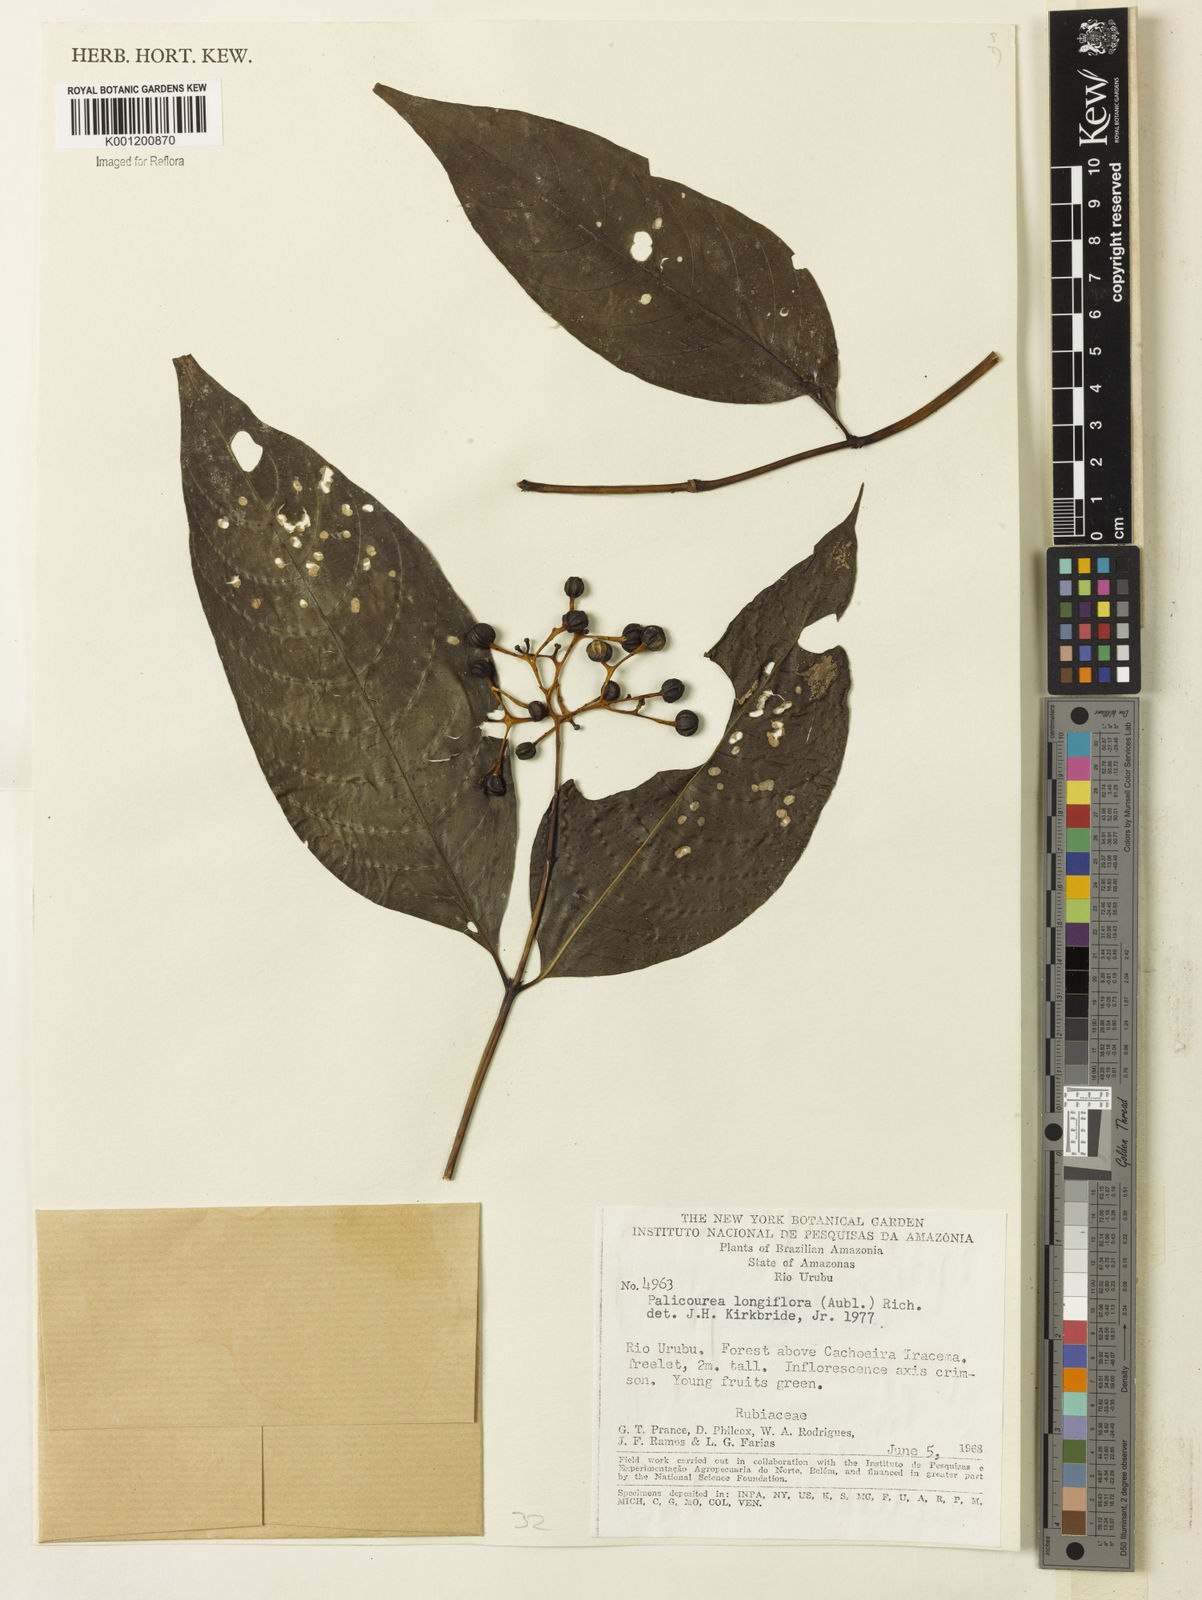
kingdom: Plantae
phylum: Tracheophyta
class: Magnoliopsida
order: Gentianales
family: Rubiaceae
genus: Palicourea
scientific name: Palicourea longiflora
